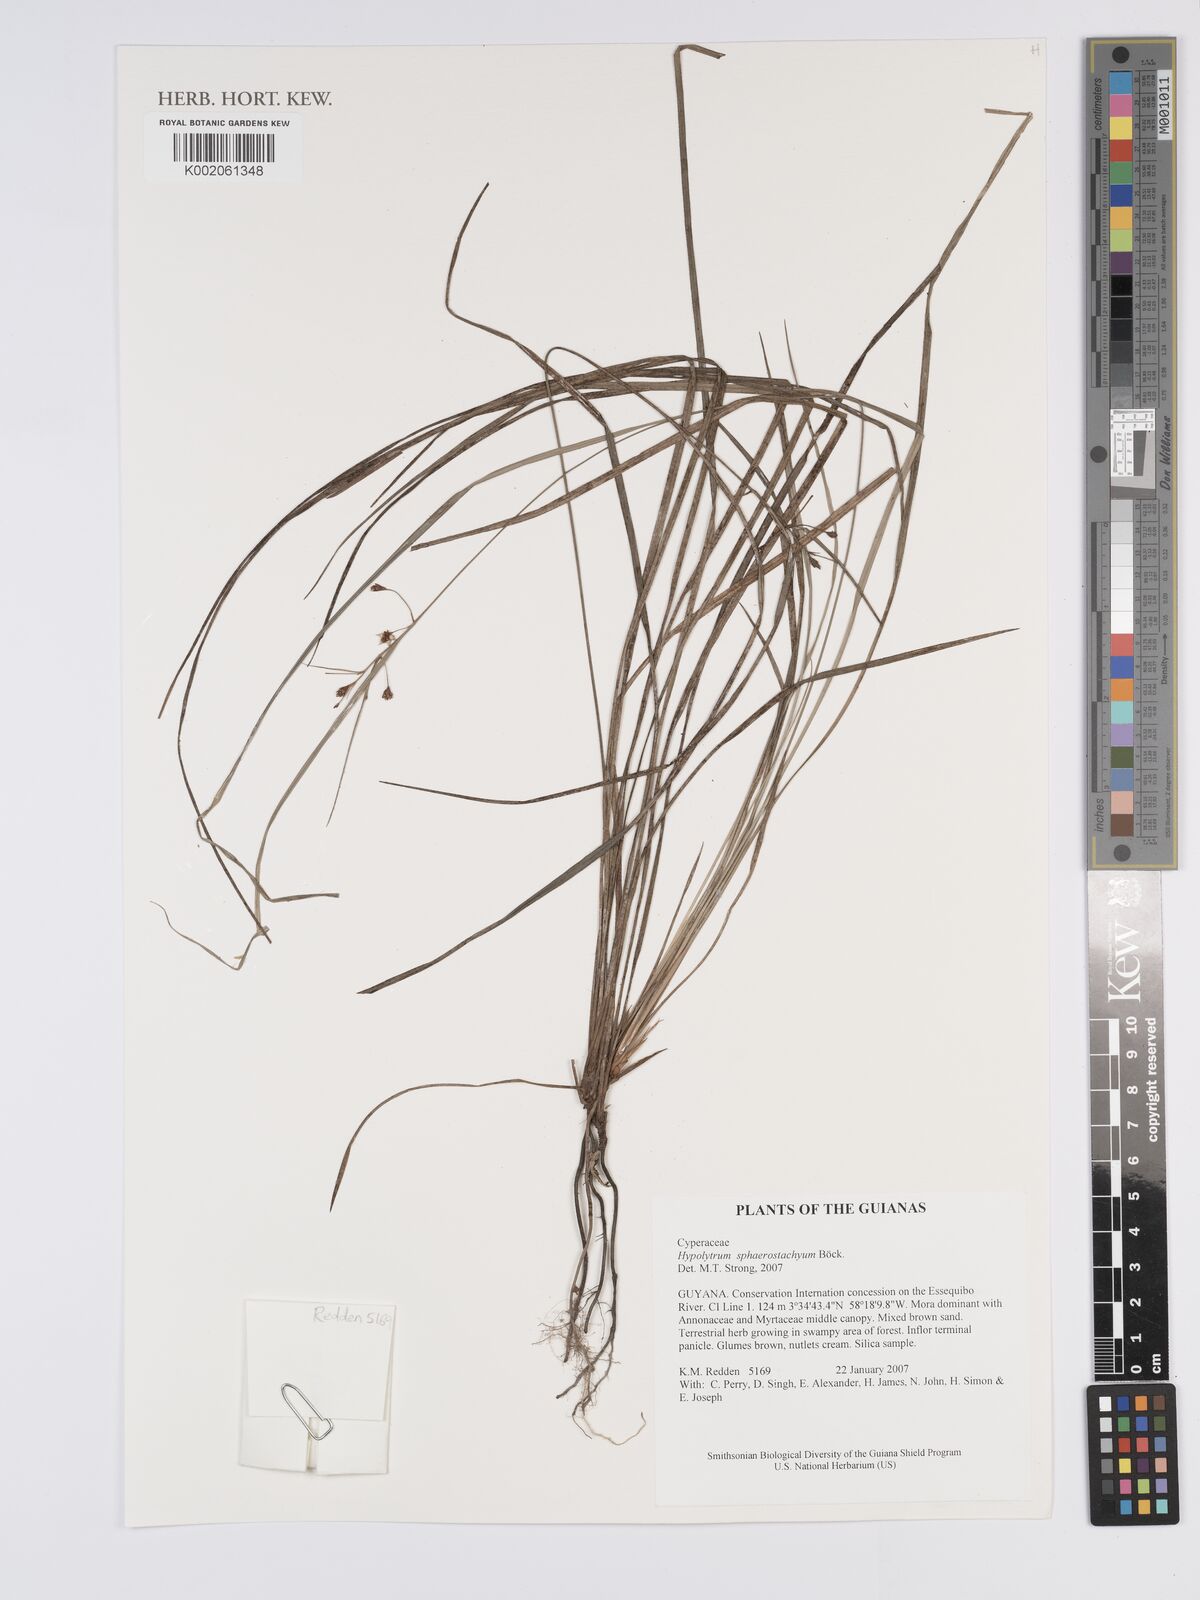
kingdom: Plantae
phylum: Tracheophyta
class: Liliopsida
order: Poales
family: Cyperaceae
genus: Hypolytrum
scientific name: Hypolytrum sphaerostachyum
